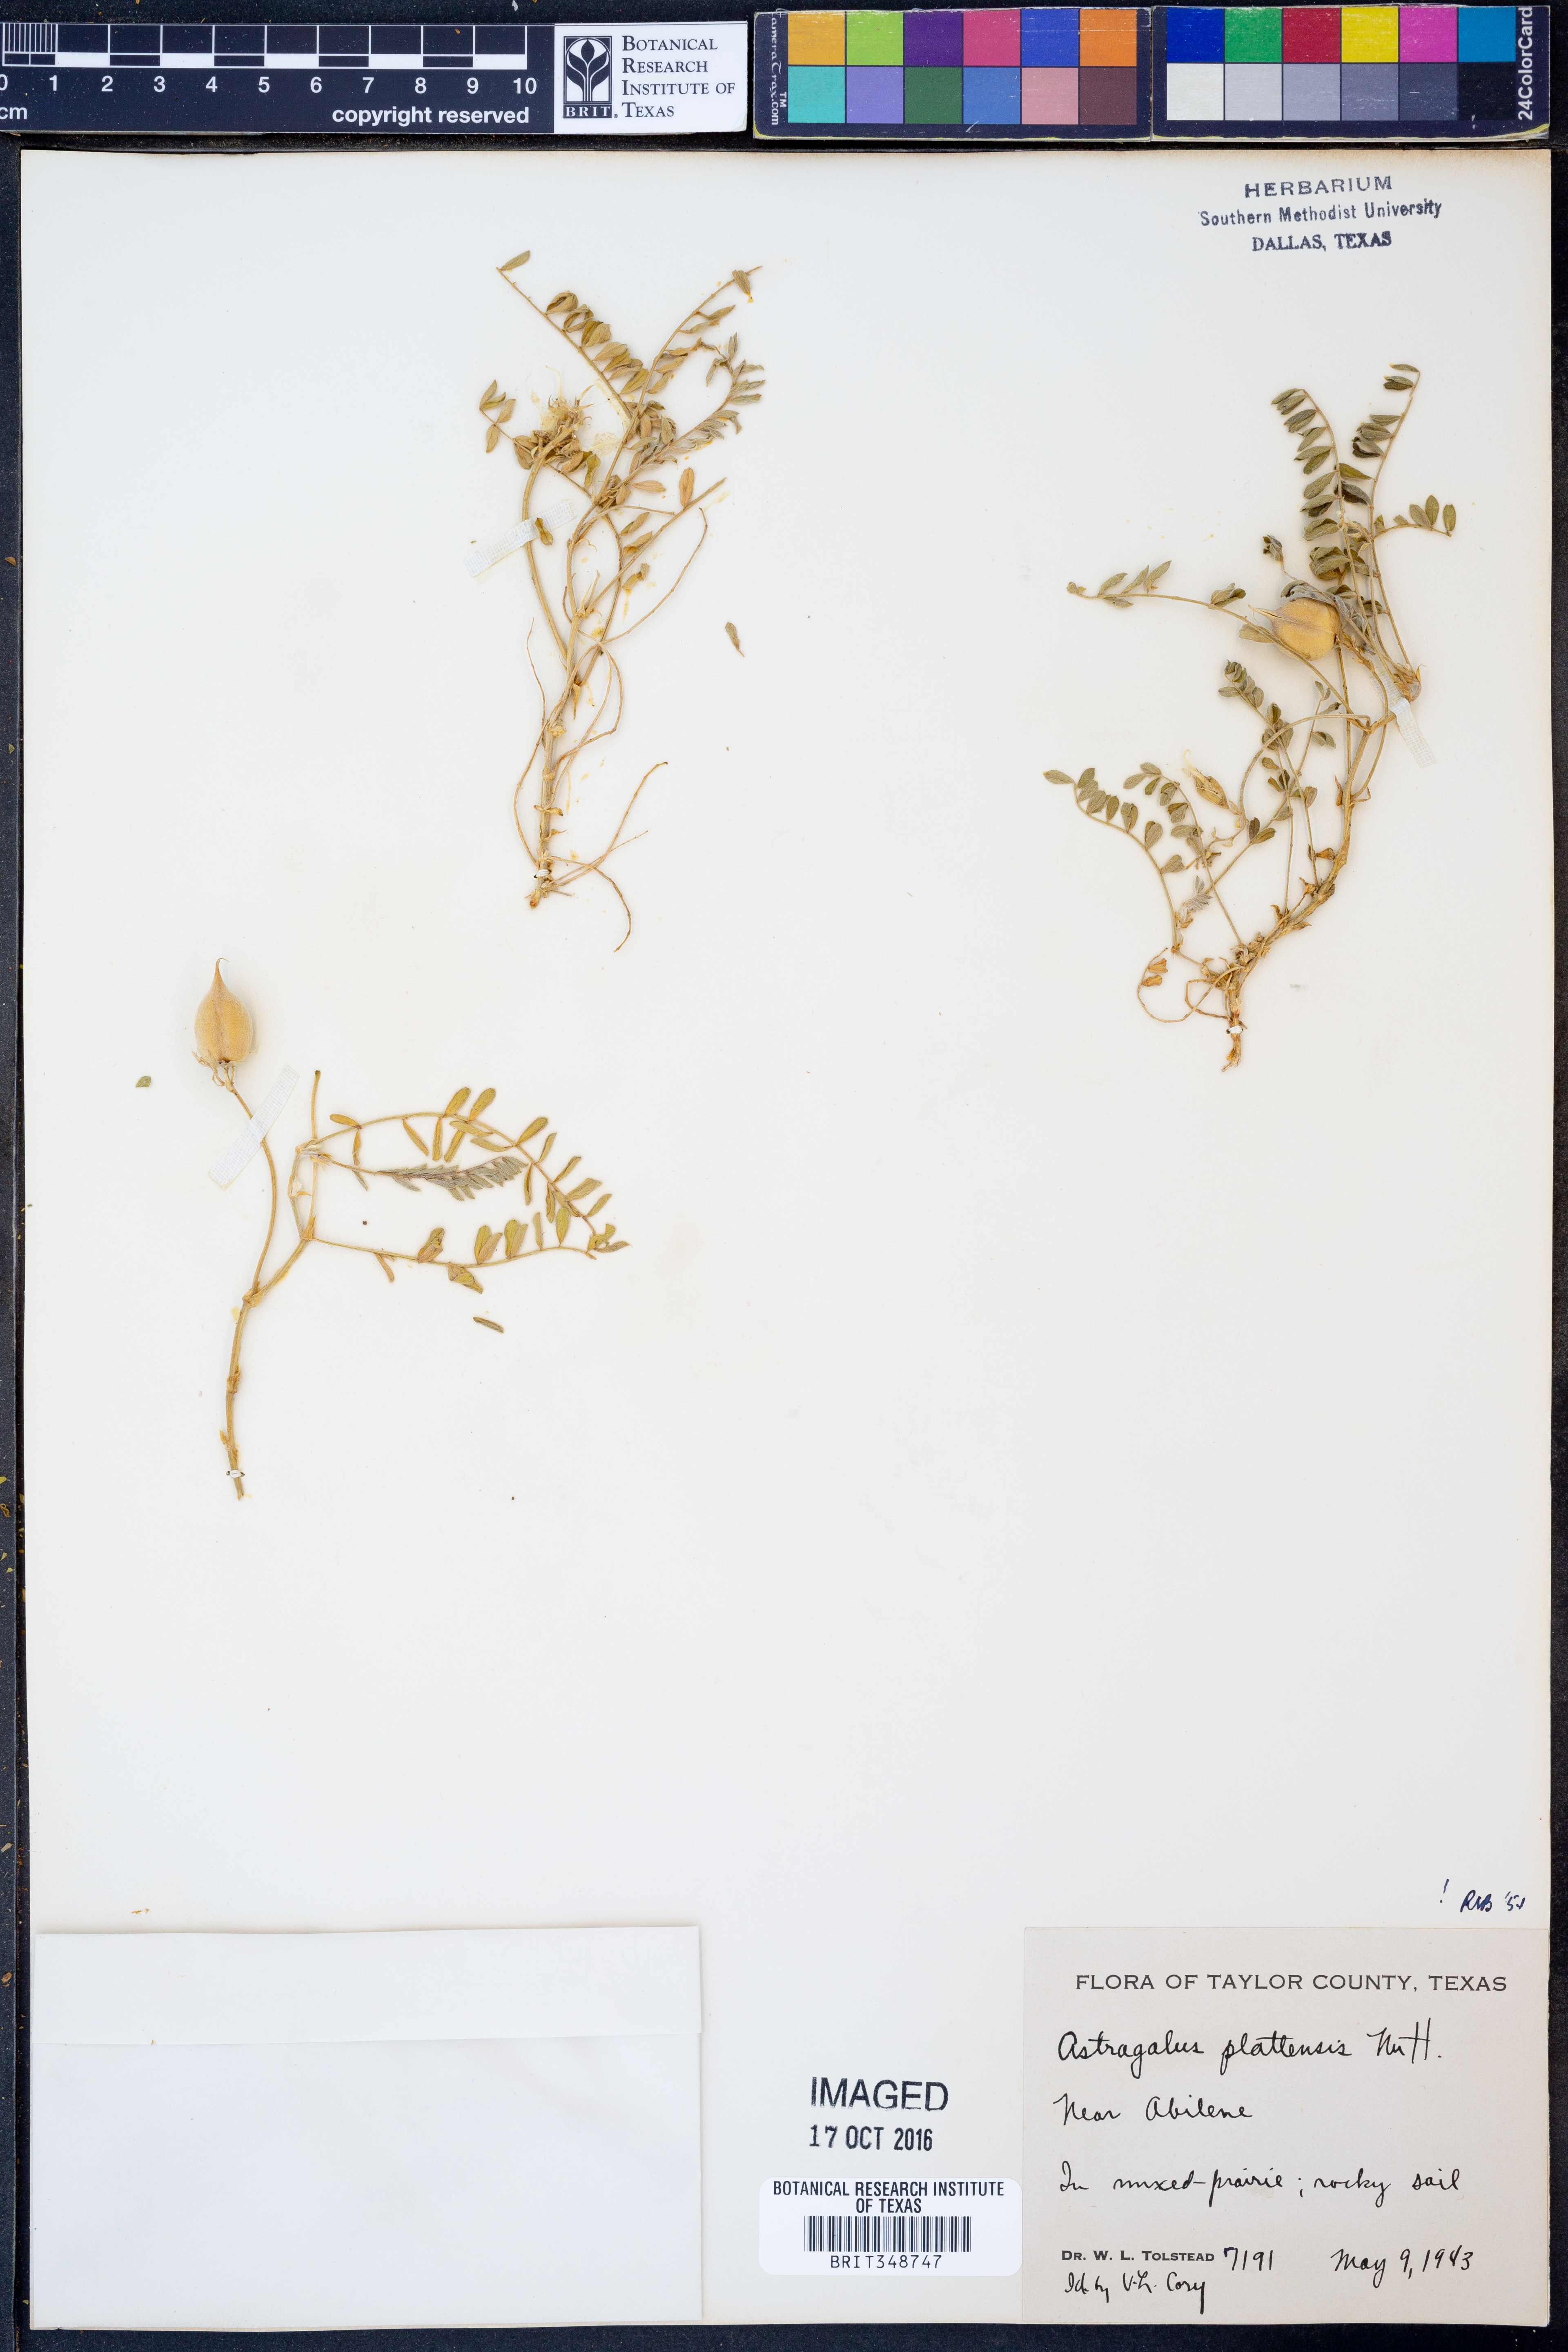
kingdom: Plantae
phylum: Tracheophyta
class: Magnoliopsida
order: Fabales
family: Fabaceae
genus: Astragalus
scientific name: Astragalus plattensis
